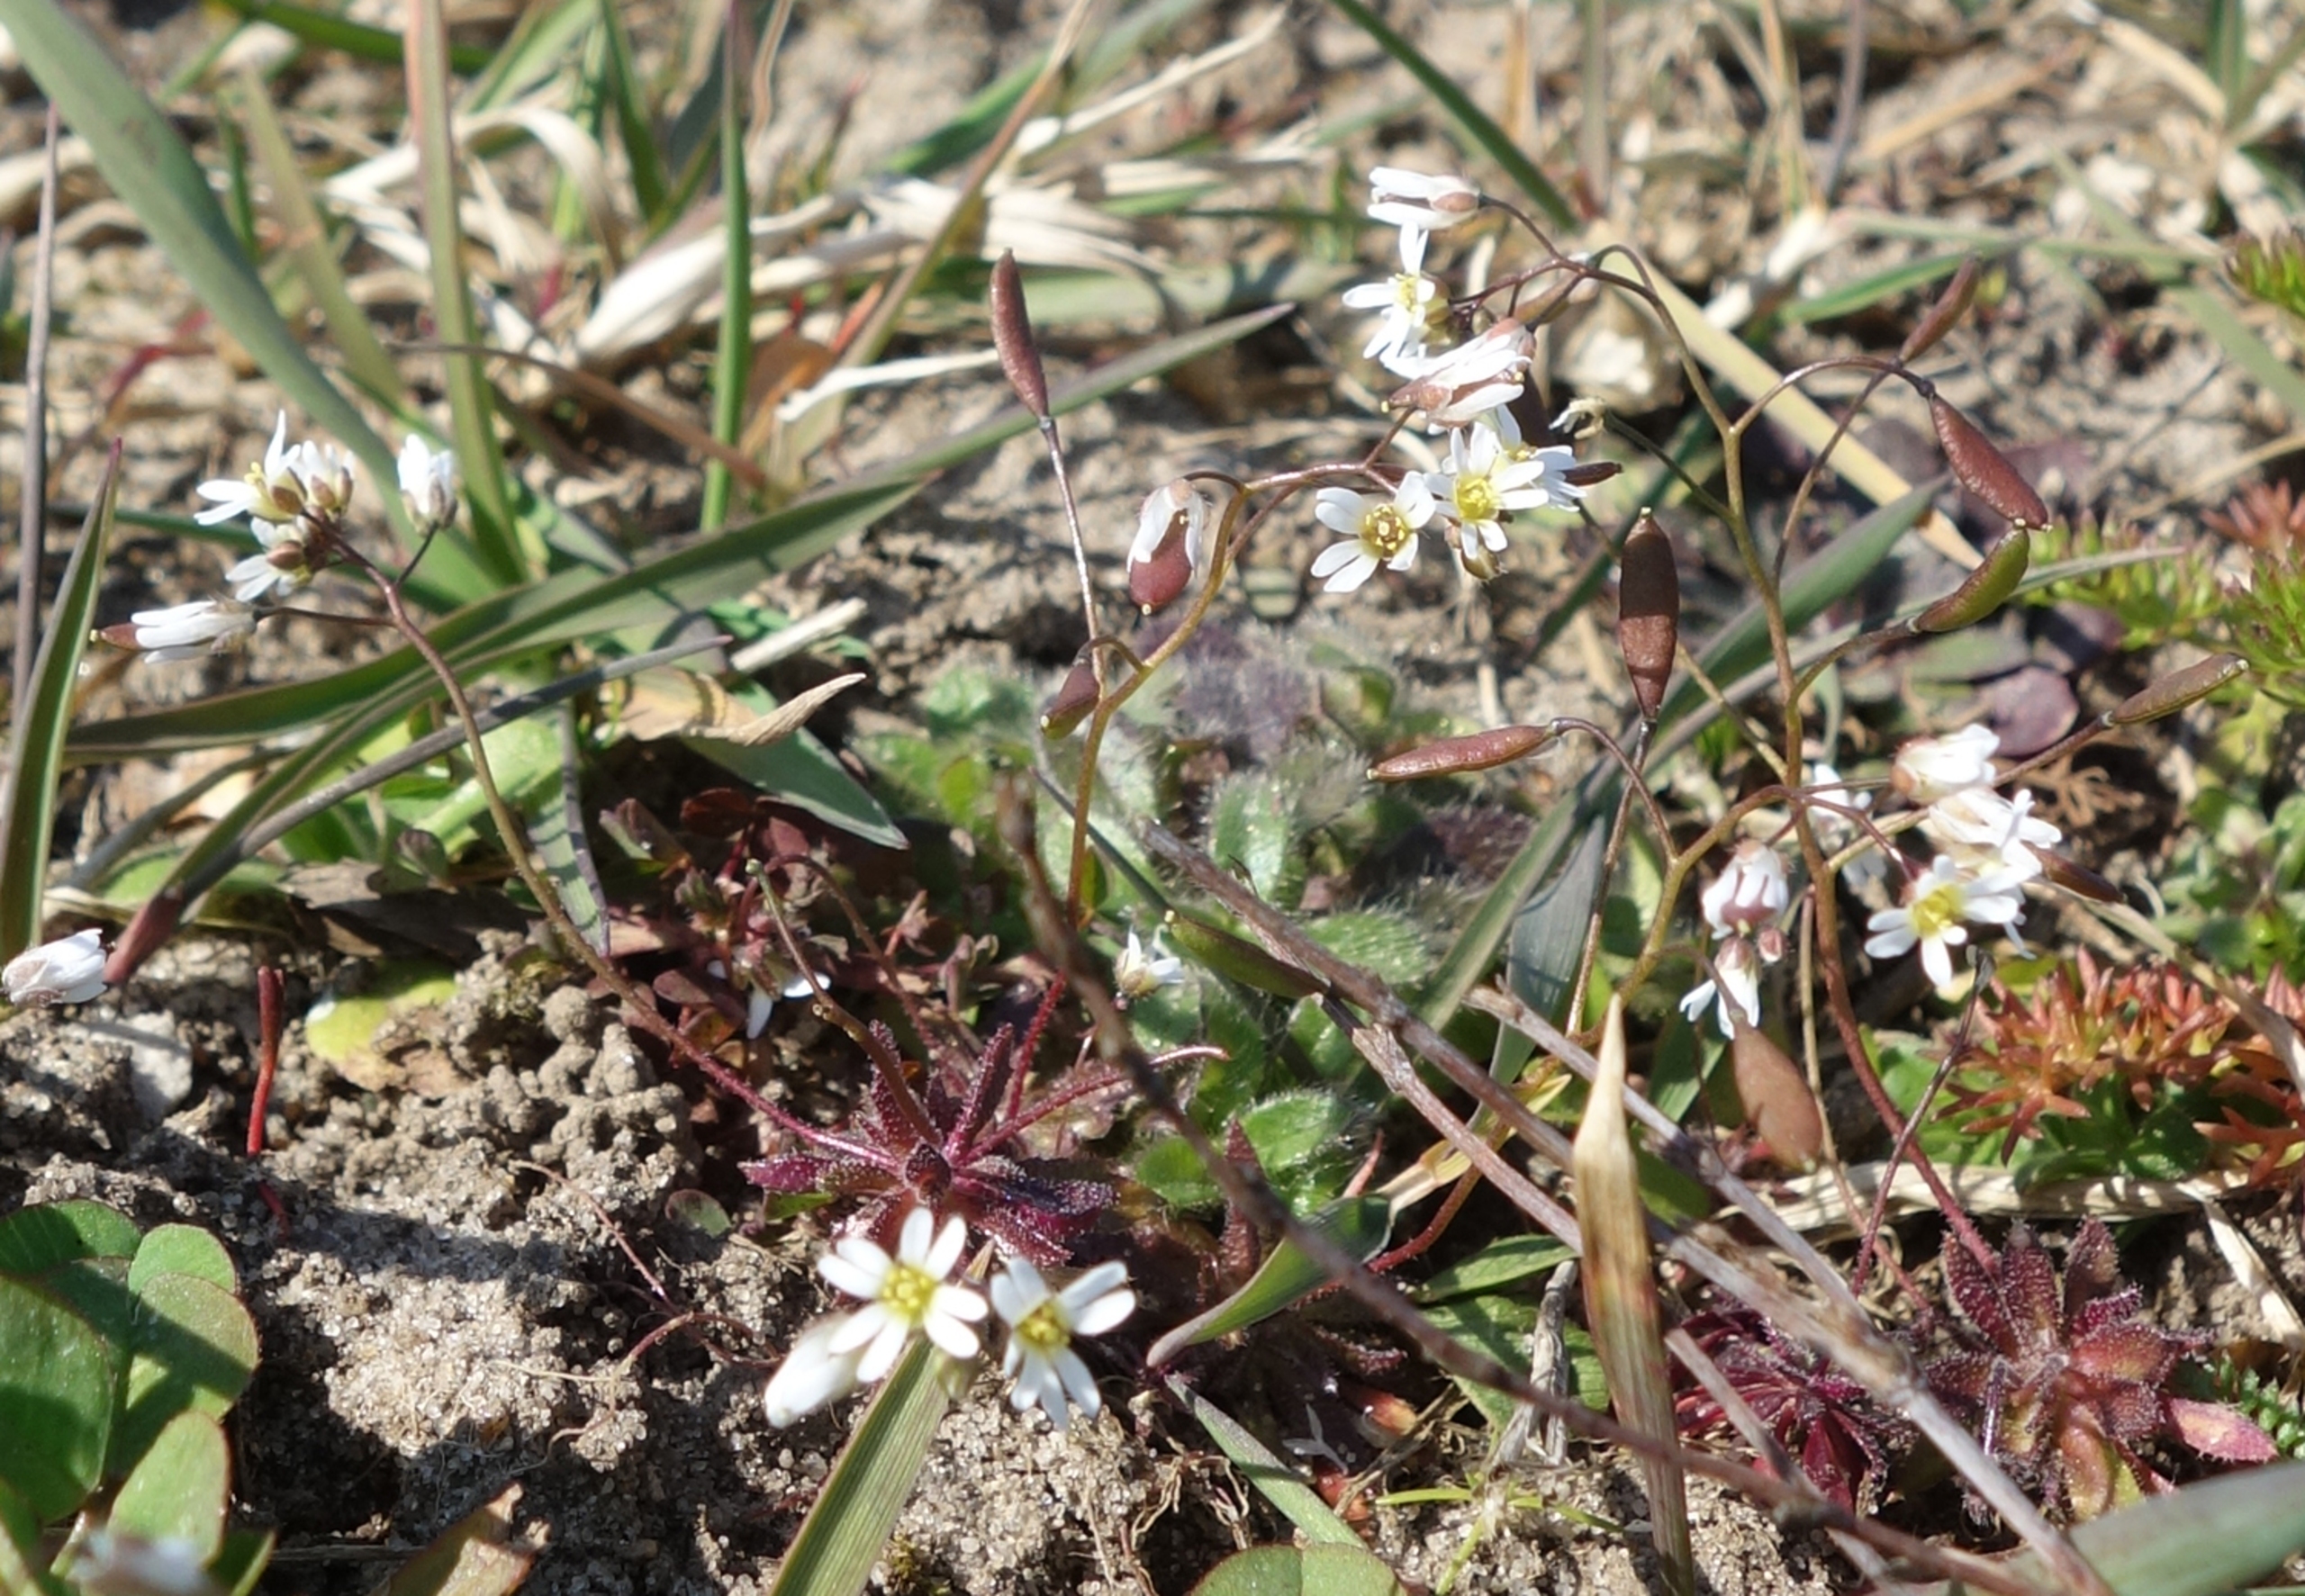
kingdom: Plantae
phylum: Tracheophyta
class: Magnoliopsida
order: Brassicales
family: Brassicaceae
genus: Draba
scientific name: Draba verna
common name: Vår-gæslingeblomst
